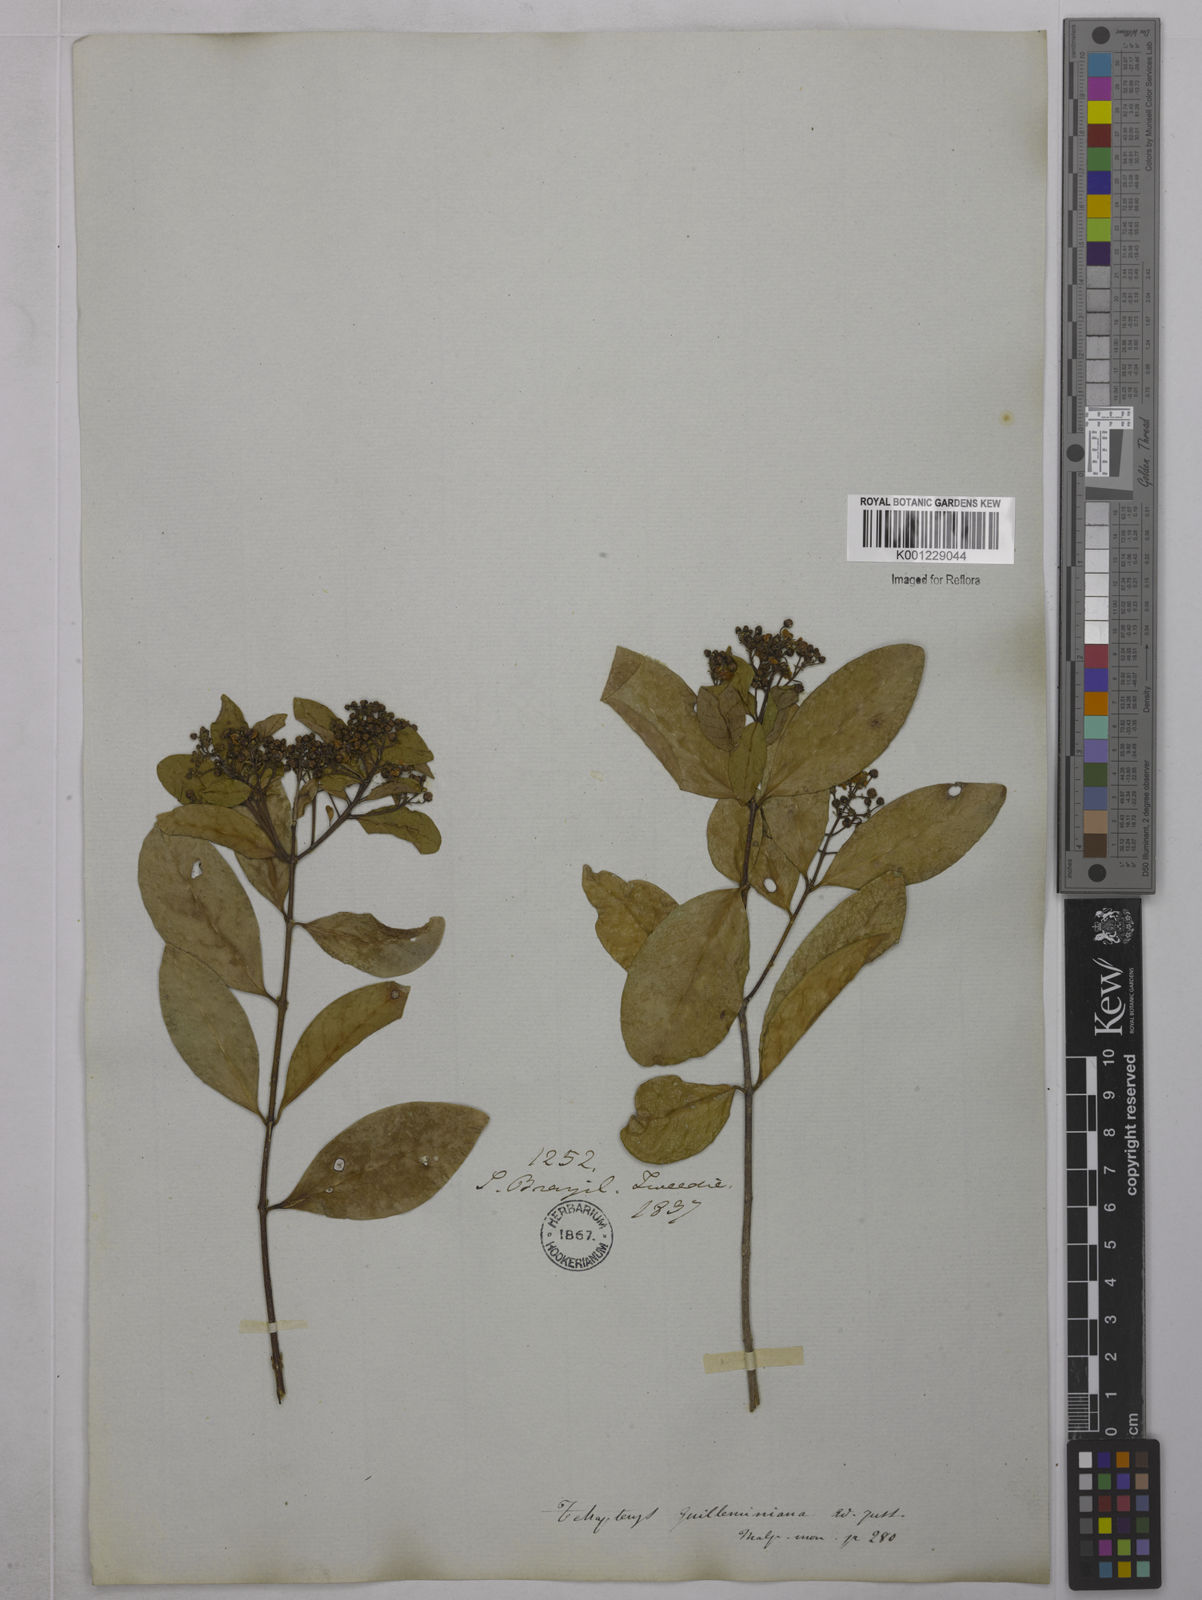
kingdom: Plantae
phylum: Tracheophyta
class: Magnoliopsida
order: Malpighiales
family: Malpighiaceae
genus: Niedenzuella
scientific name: Niedenzuella acutifolia
